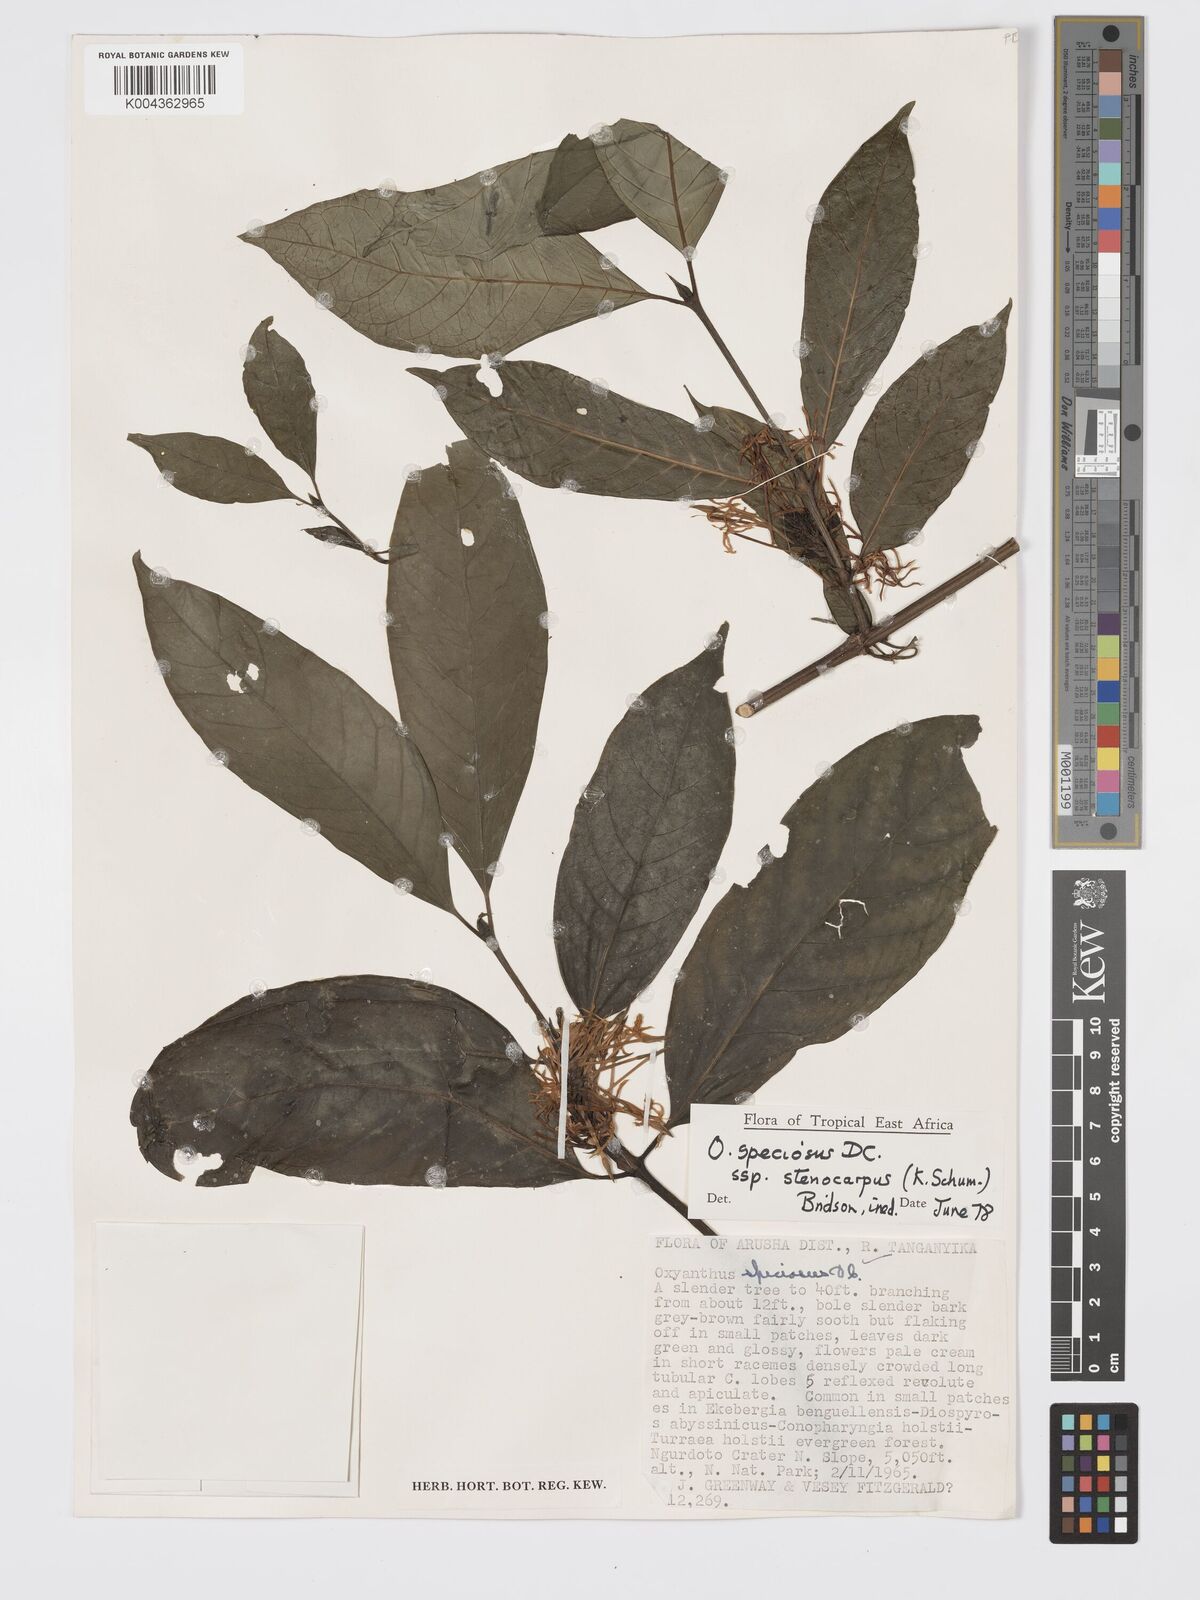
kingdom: Plantae
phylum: Tracheophyta
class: Magnoliopsida
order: Gentianales
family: Rubiaceae
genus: Oxyanthus
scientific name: Oxyanthus speciosus
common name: Whipstick loquat
